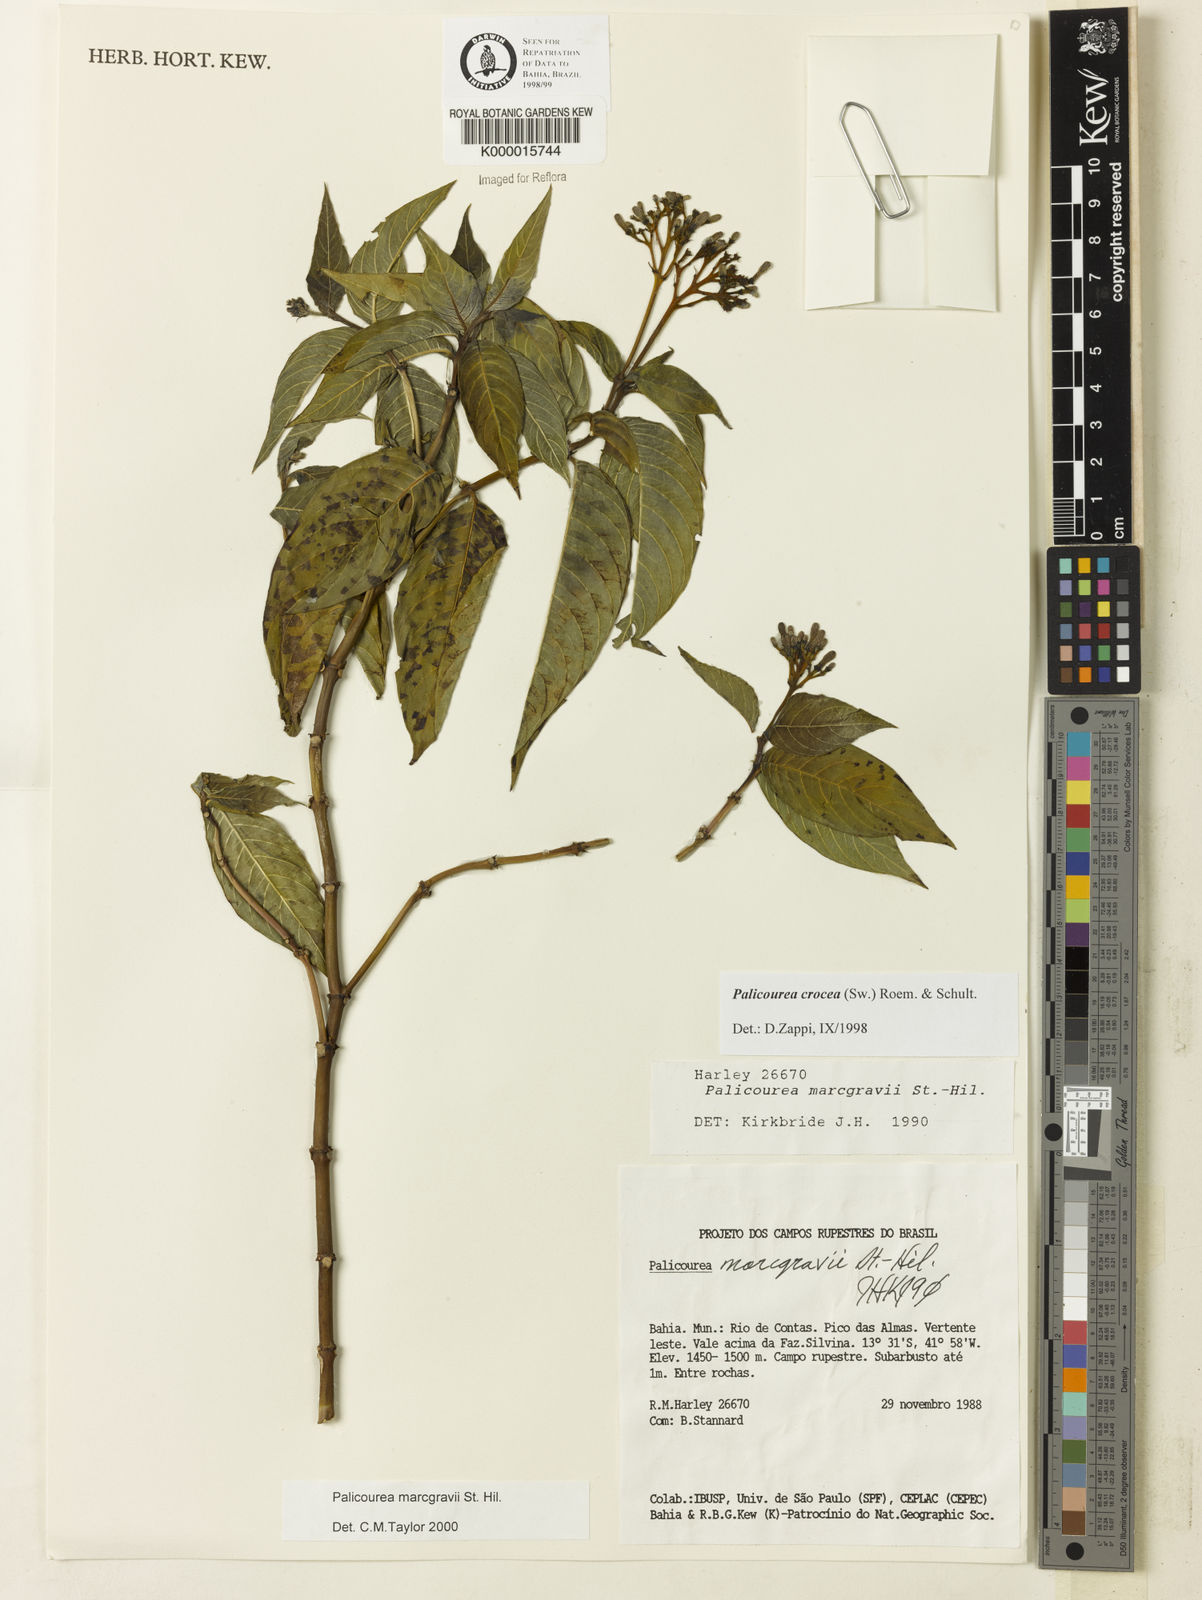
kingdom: Plantae
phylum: Tracheophyta
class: Magnoliopsida
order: Gentianales
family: Rubiaceae
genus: Palicourea
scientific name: Palicourea marcgravii
